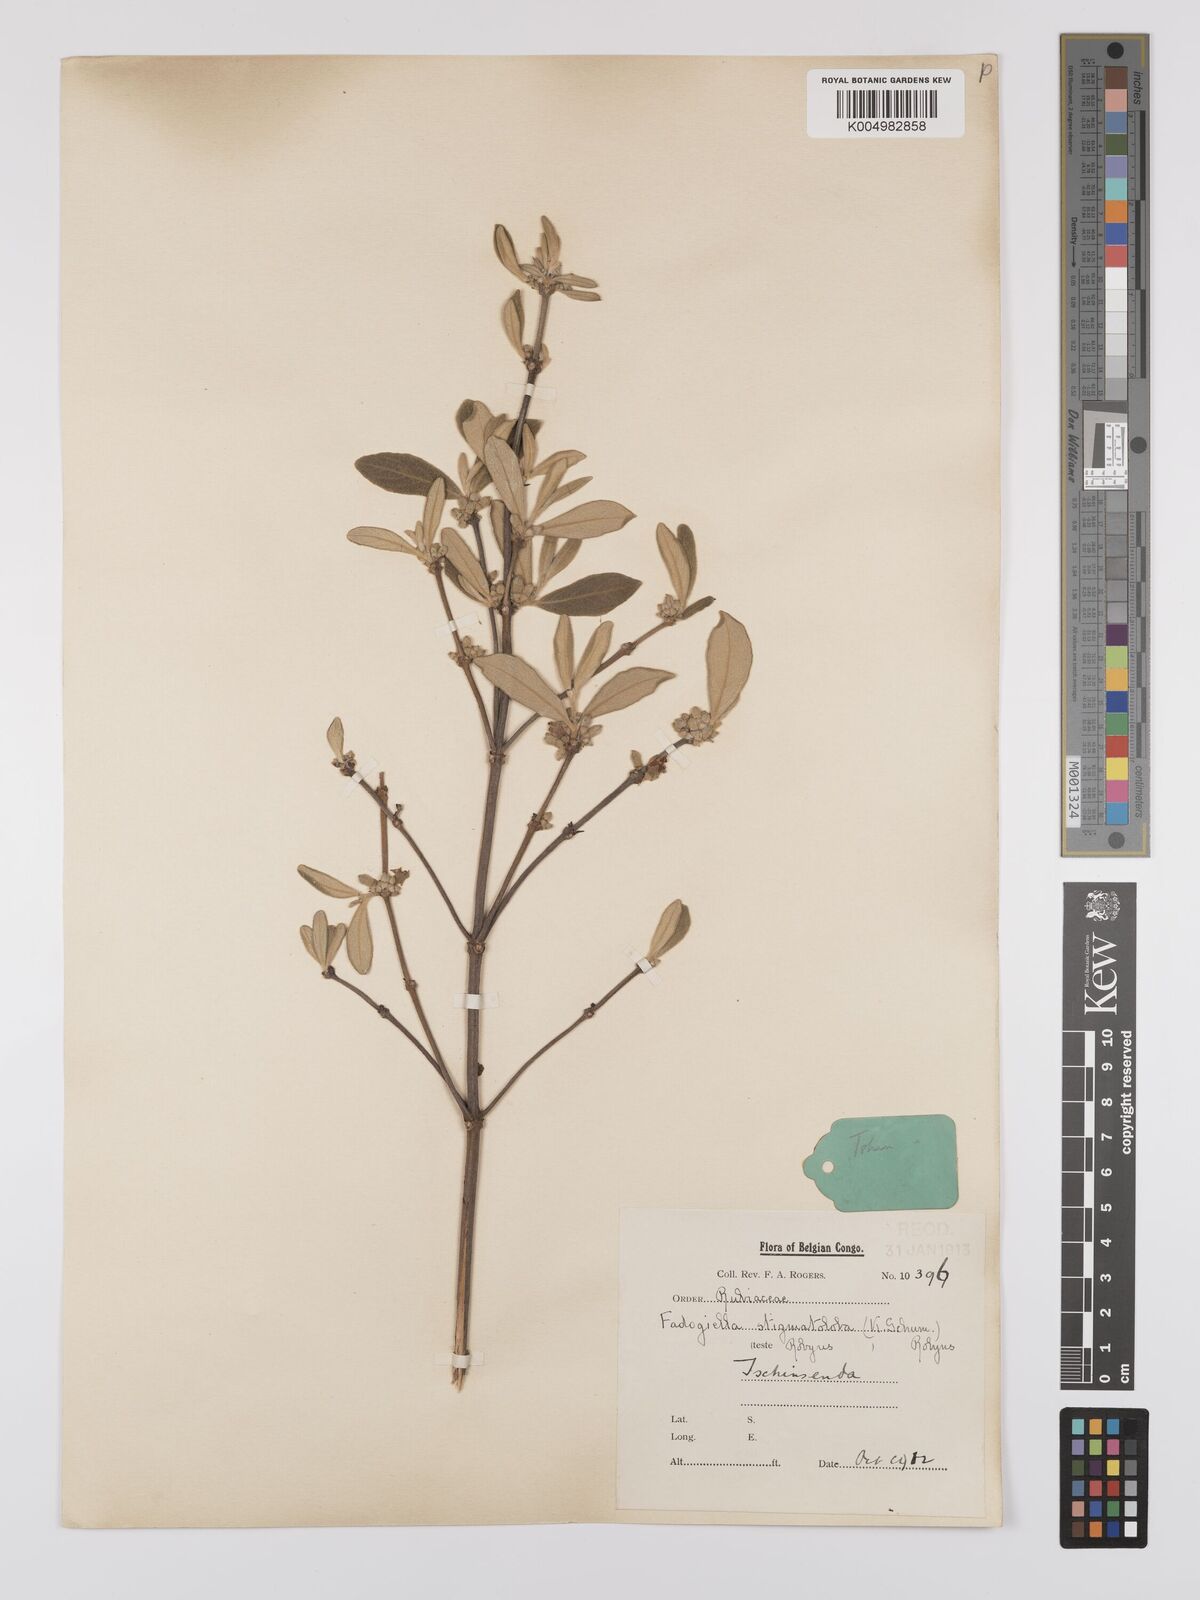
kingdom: Plantae
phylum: Tracheophyta
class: Magnoliopsida
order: Gentianales
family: Rubiaceae
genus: Fadogiella
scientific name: Fadogiella stigmatoloba
